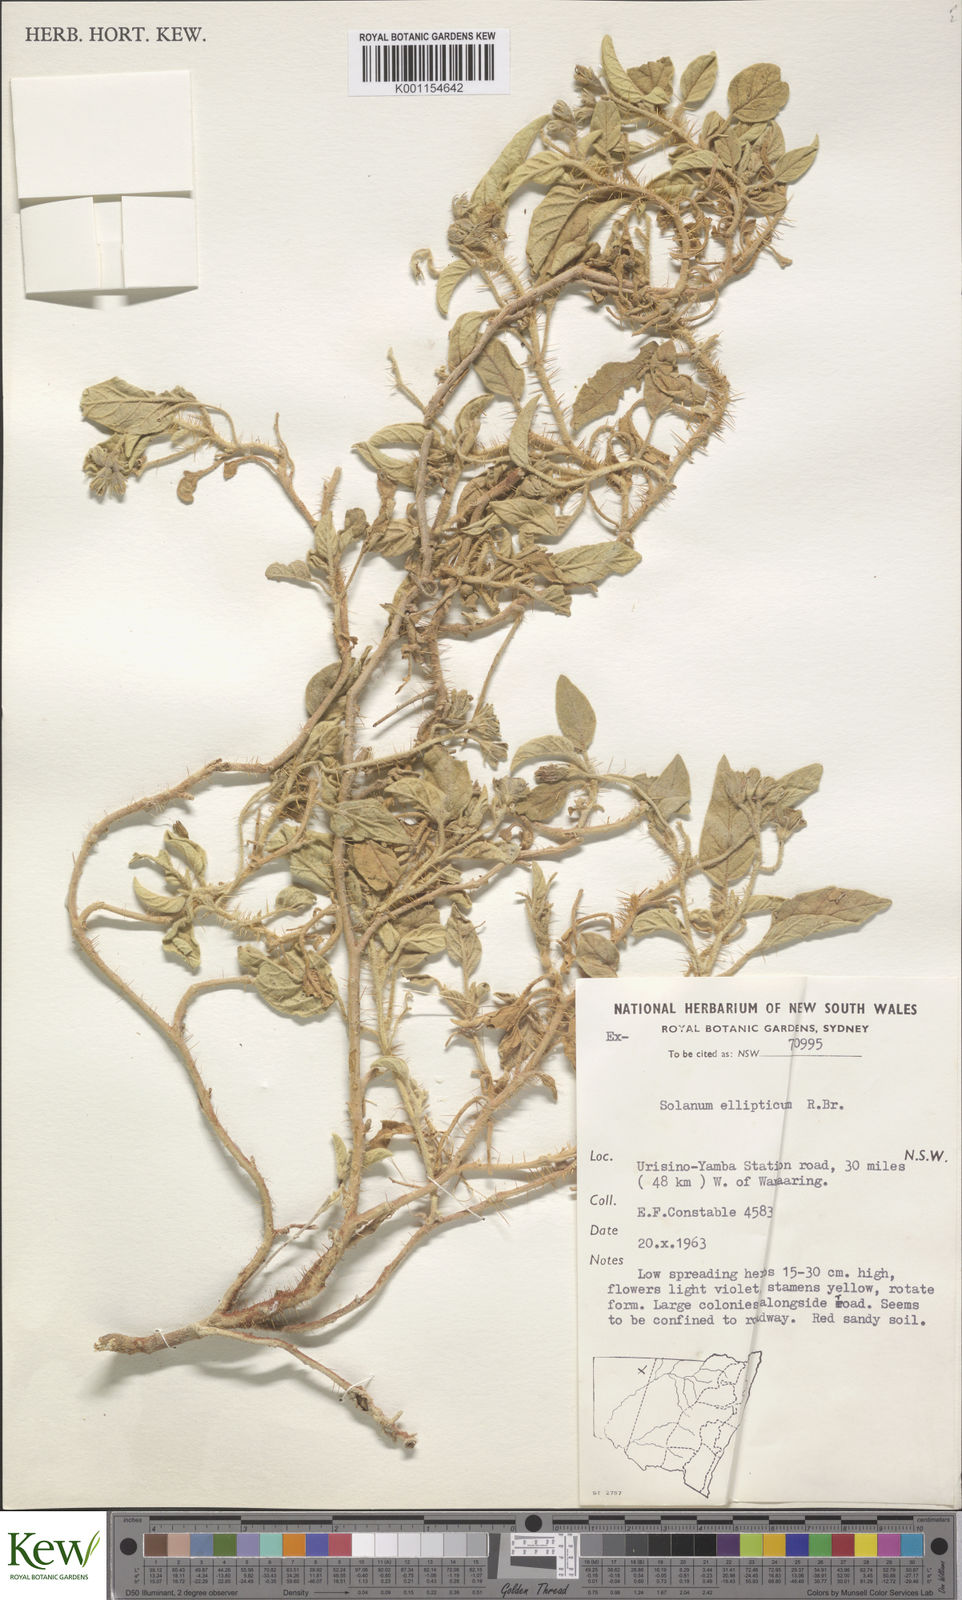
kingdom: Plantae
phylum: Tracheophyta
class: Magnoliopsida
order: Solanales
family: Solanaceae
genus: Solanum
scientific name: Solanum ellipticum
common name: Potato-bush
